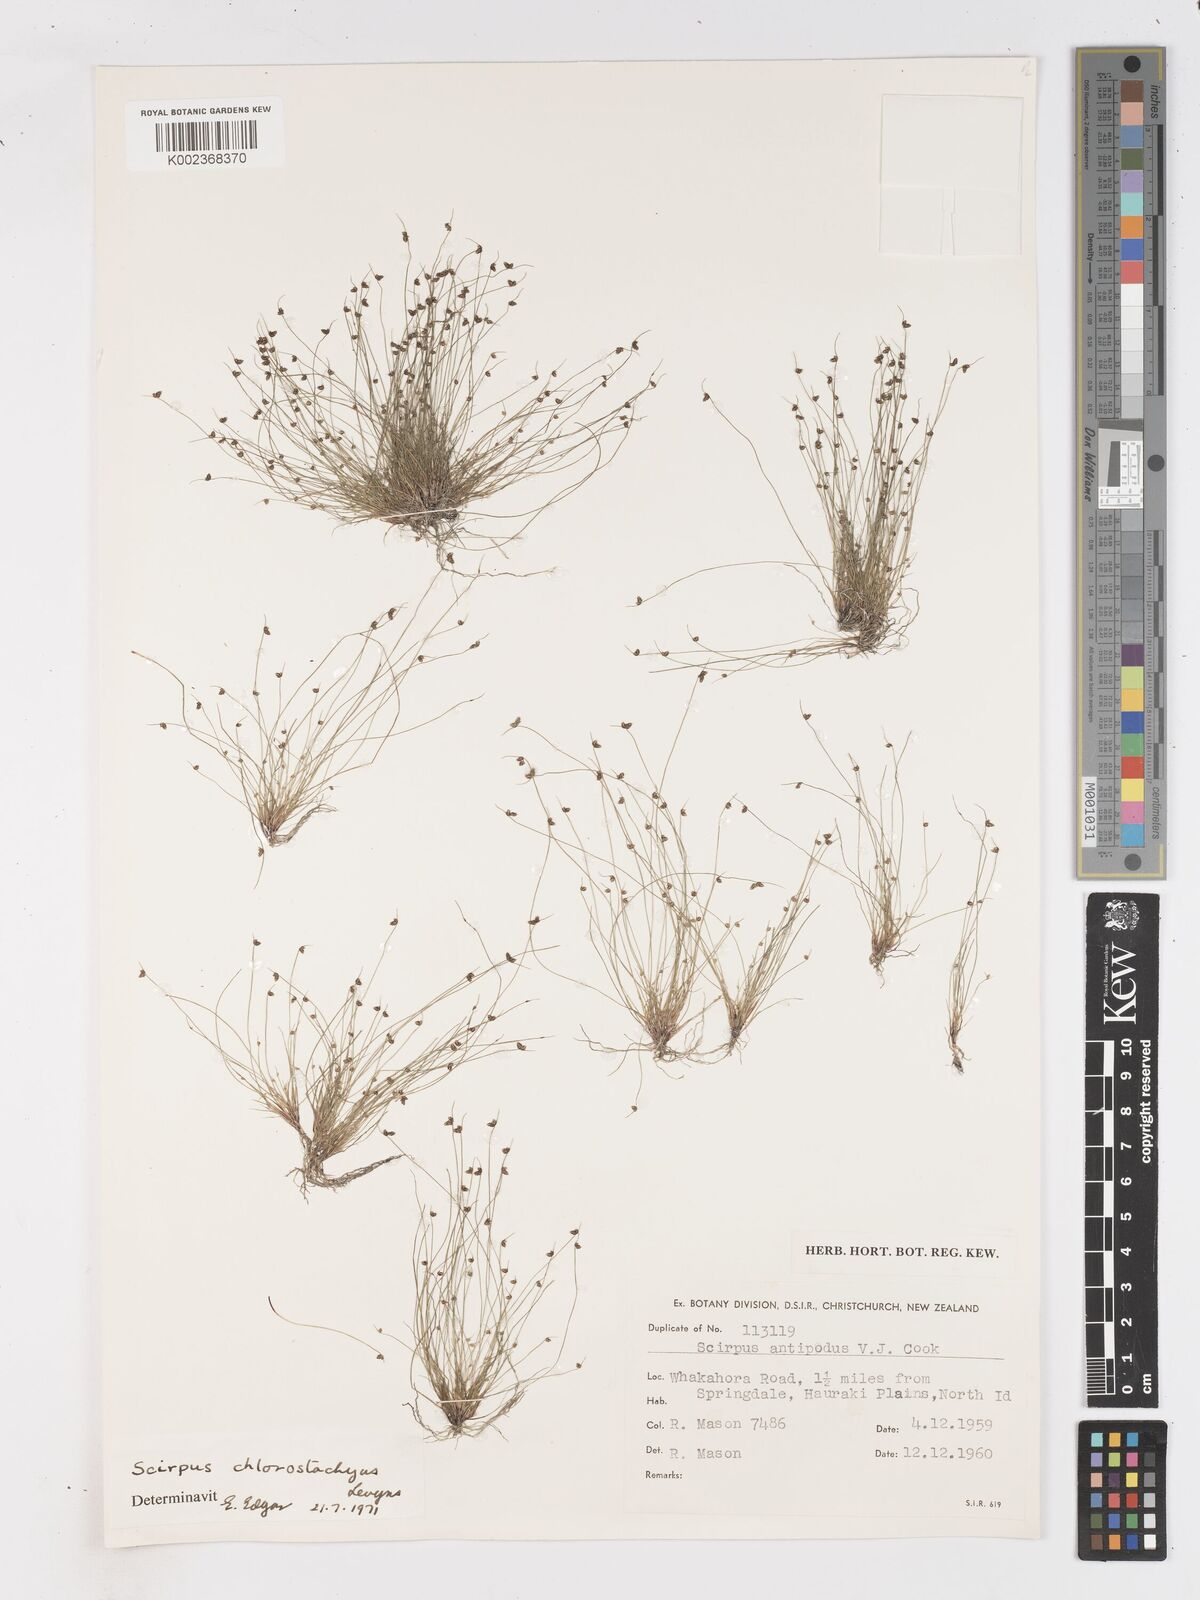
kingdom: Plantae
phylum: Tracheophyta
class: Liliopsida
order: Poales
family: Cyperaceae
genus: Isolepis
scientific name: Isolepis sepulcralis
